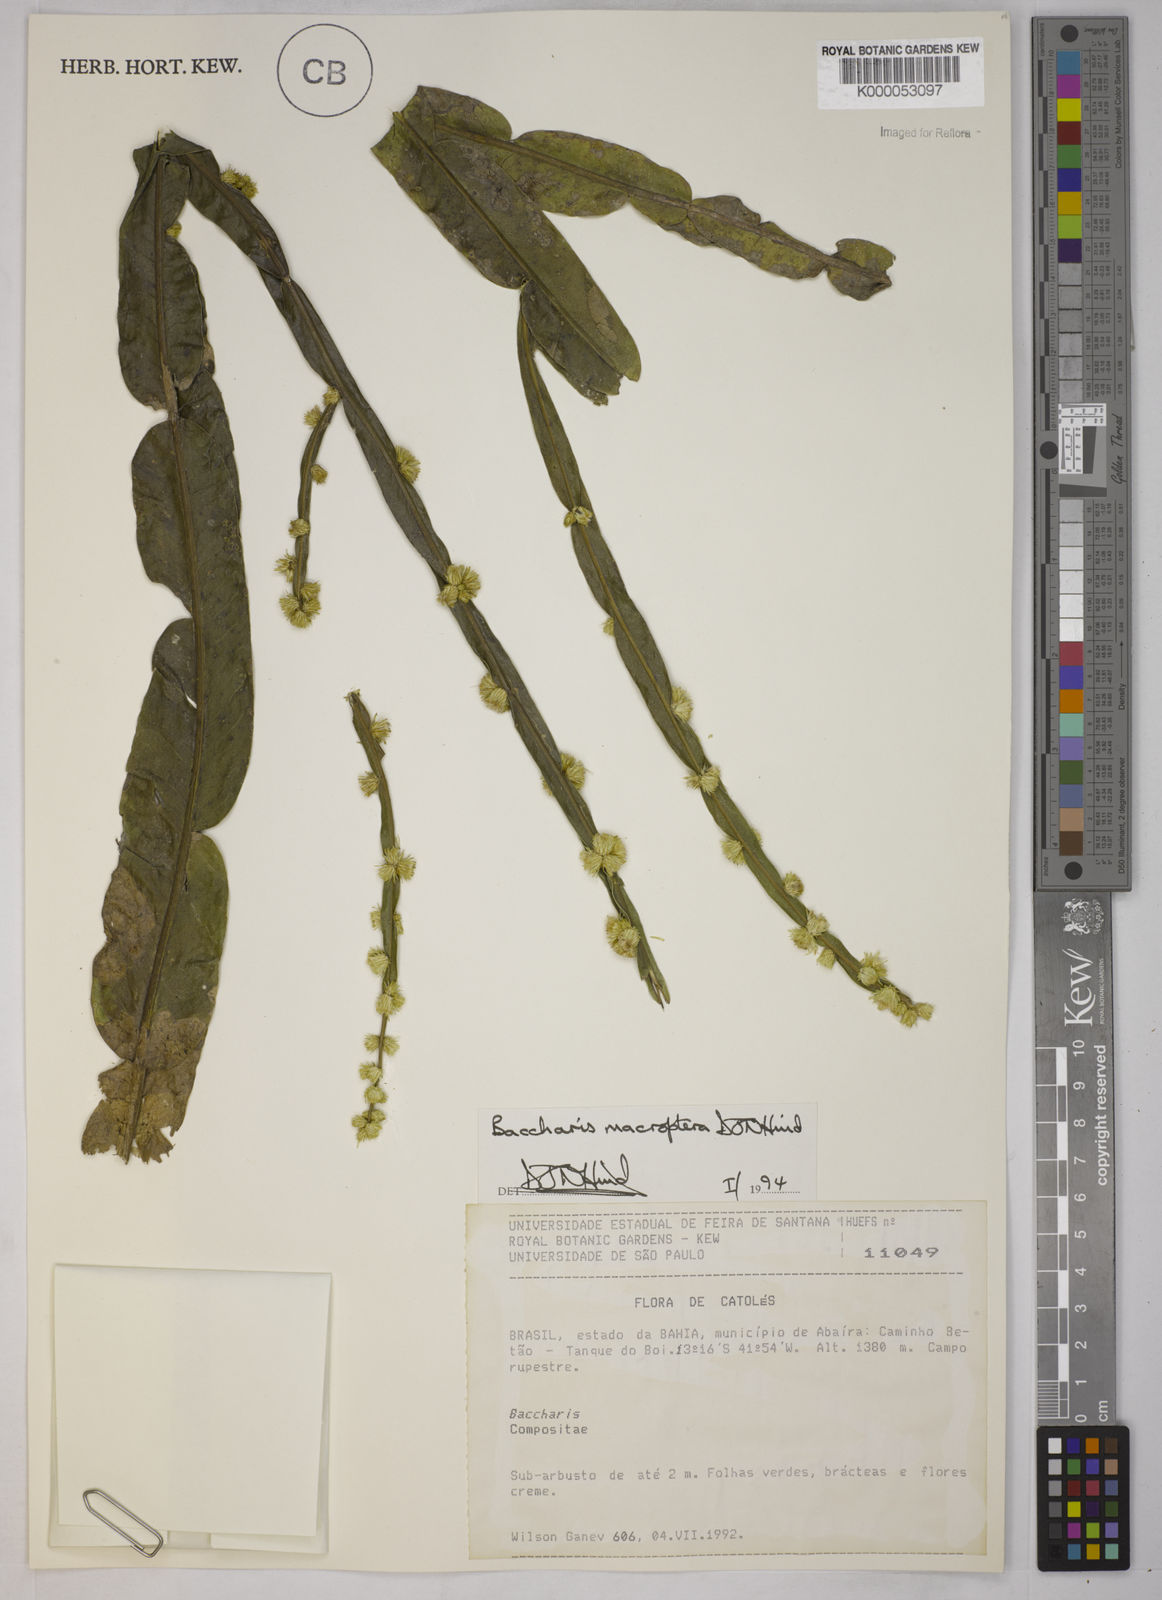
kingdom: Plantae
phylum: Tracheophyta
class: Magnoliopsida
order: Asterales
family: Asteraceae
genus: Baccharis
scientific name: Baccharis sagittalis
